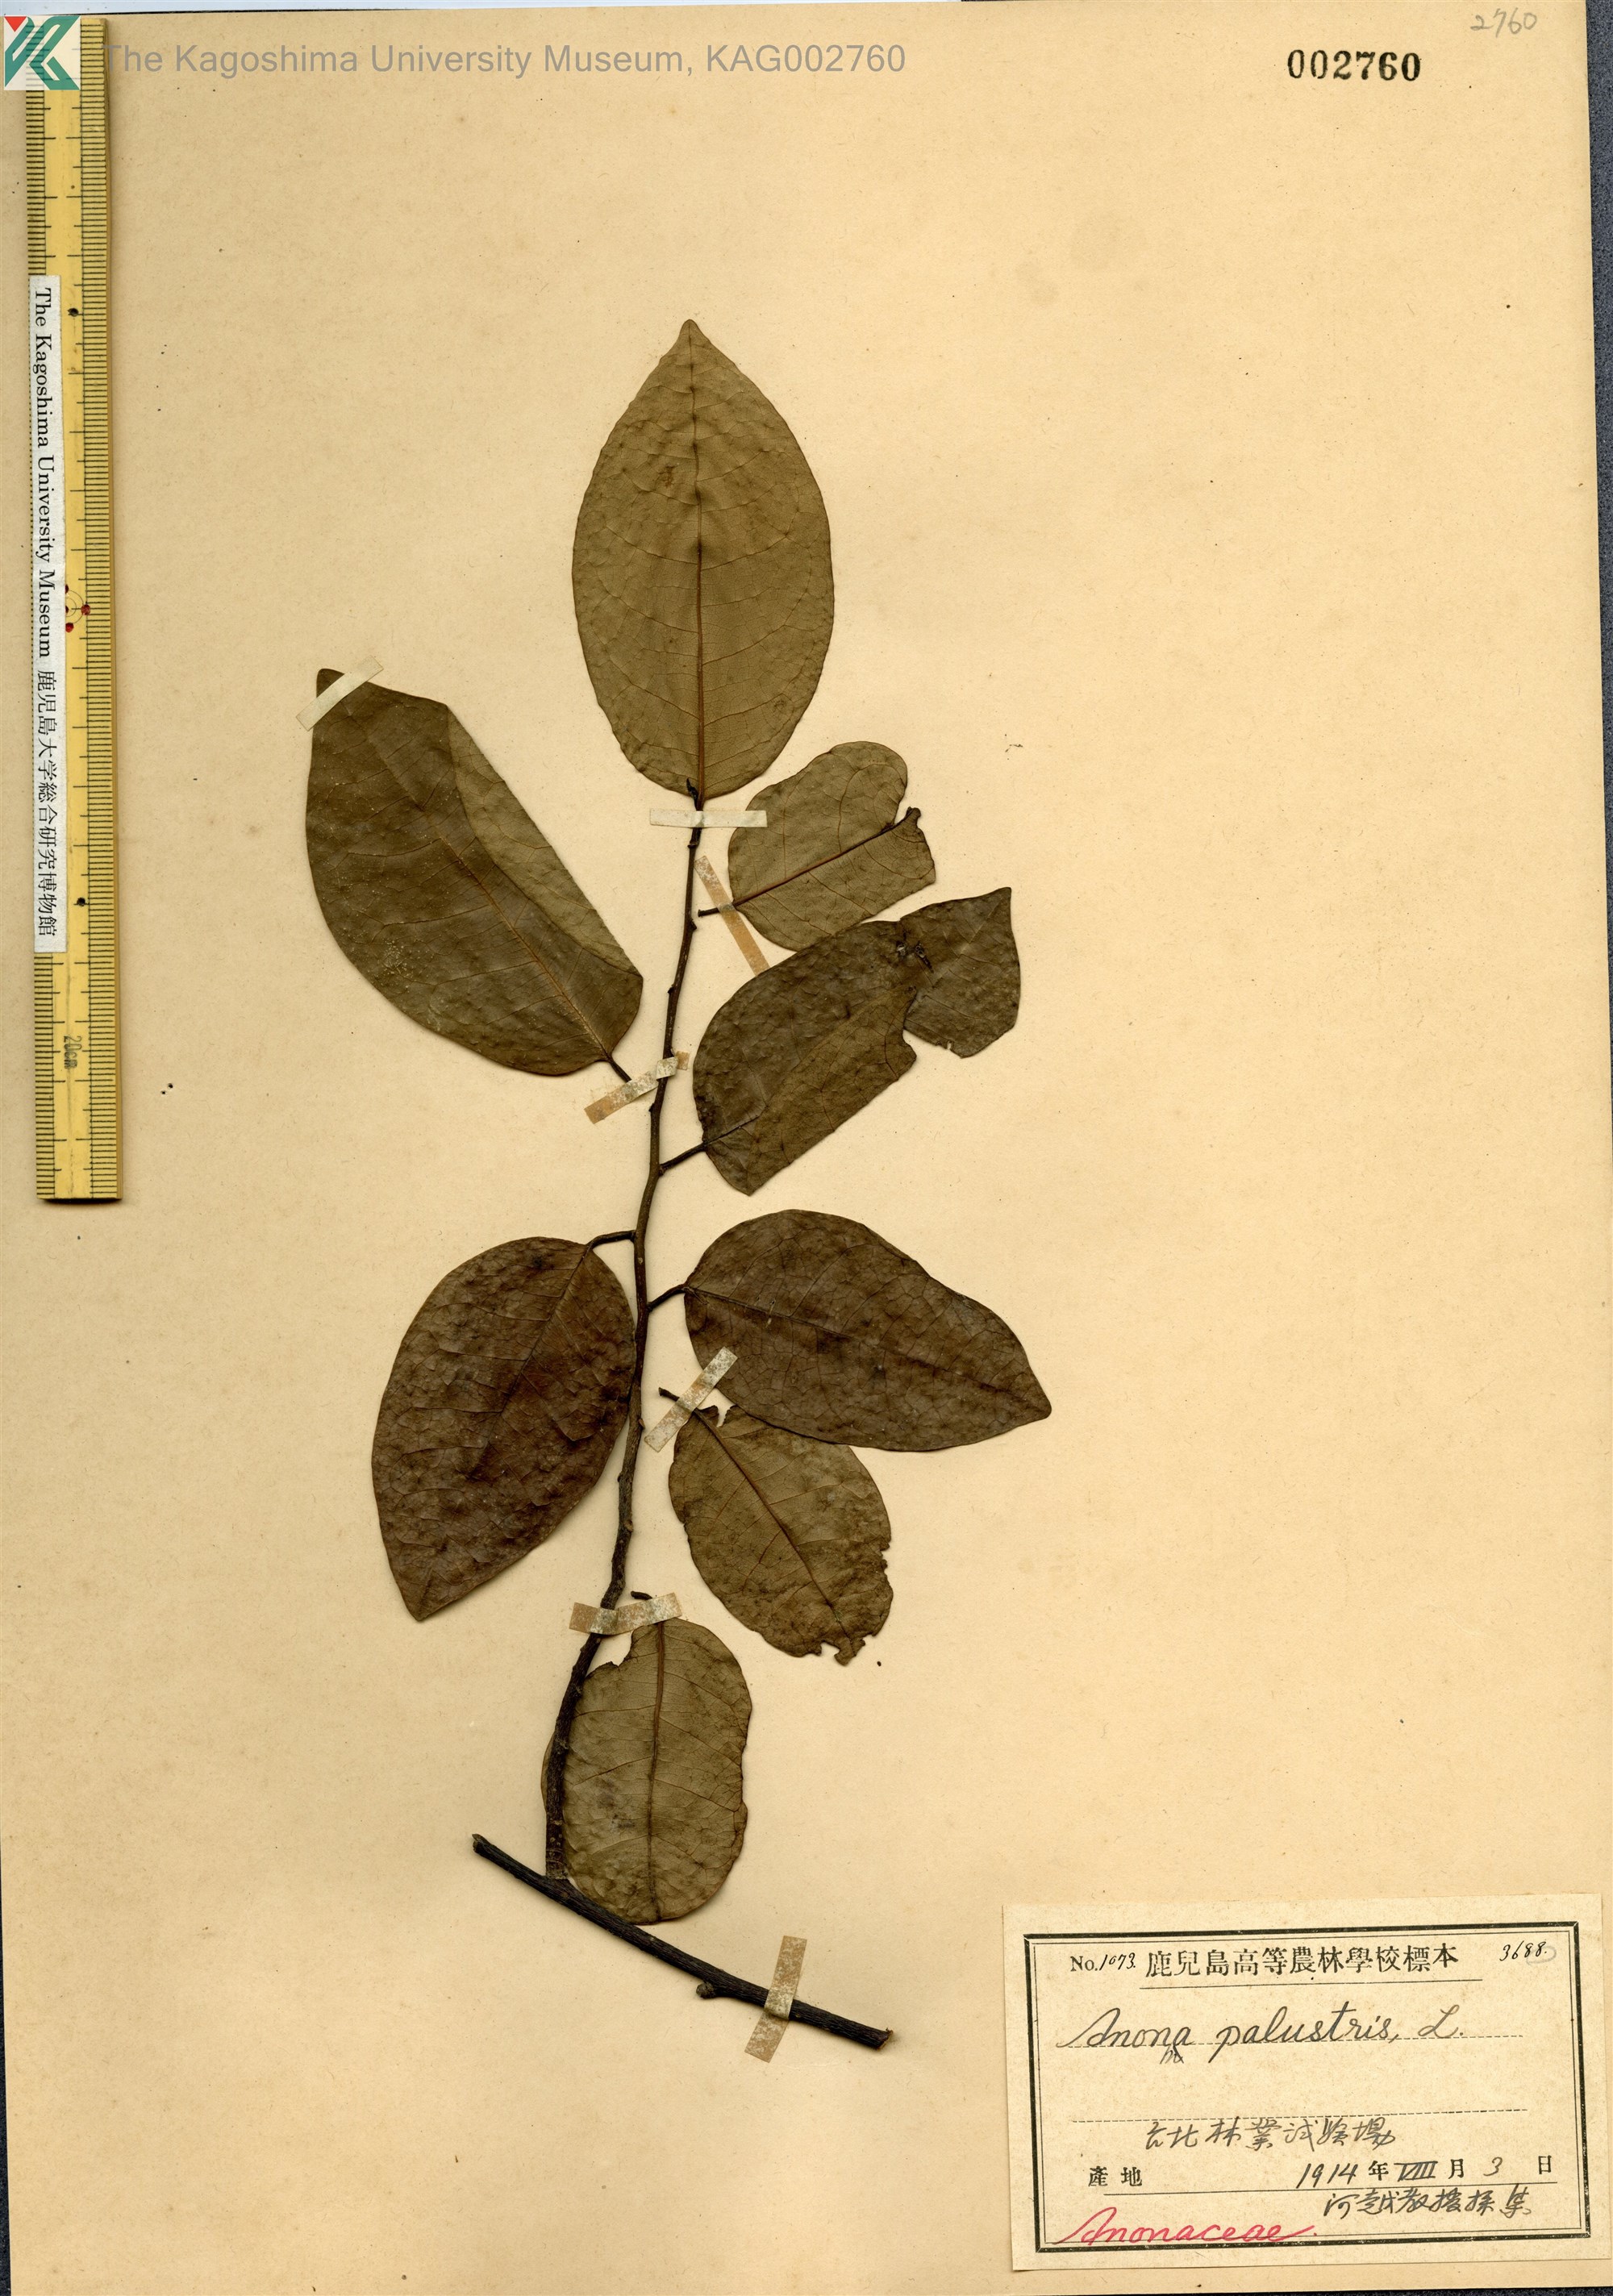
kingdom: Plantae
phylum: Tracheophyta
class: Magnoliopsida
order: Magnoliales
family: Annonaceae
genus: Annona
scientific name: Annona glabra
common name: Monkey apple
